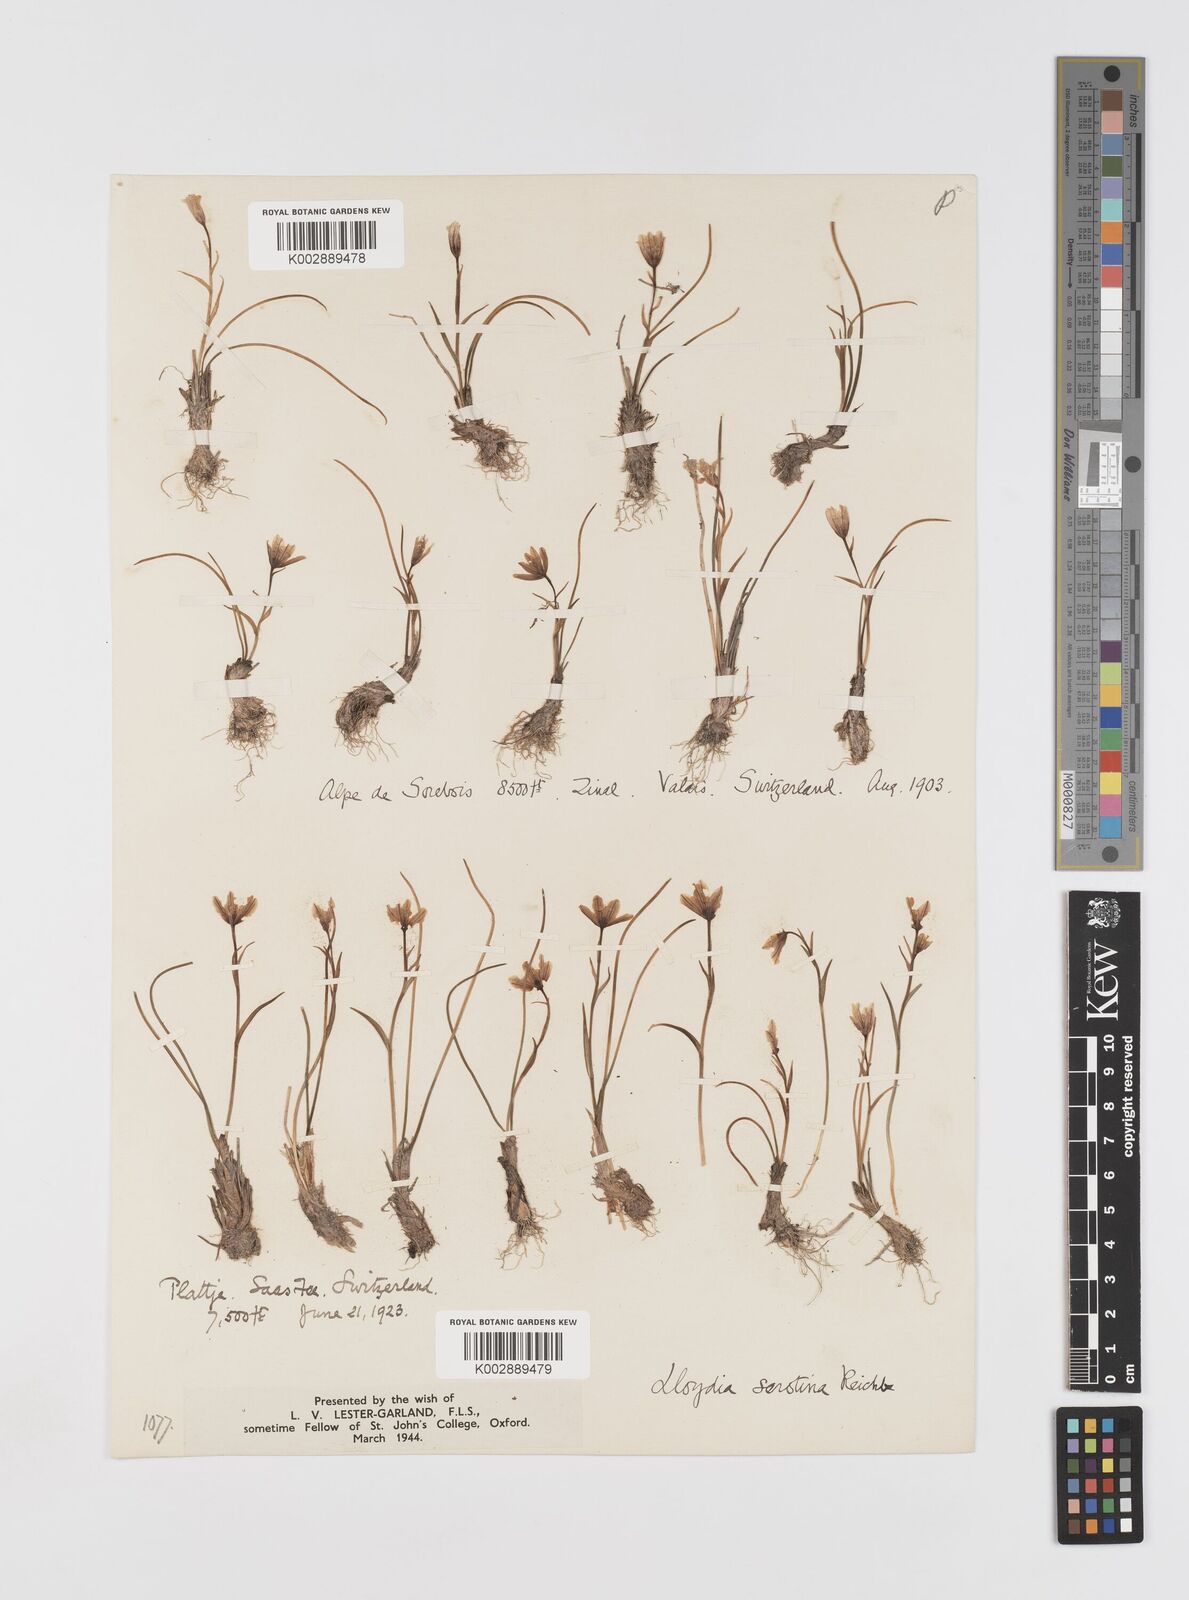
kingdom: Plantae
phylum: Tracheophyta
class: Liliopsida
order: Liliales
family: Liliaceae
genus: Gagea
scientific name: Gagea
